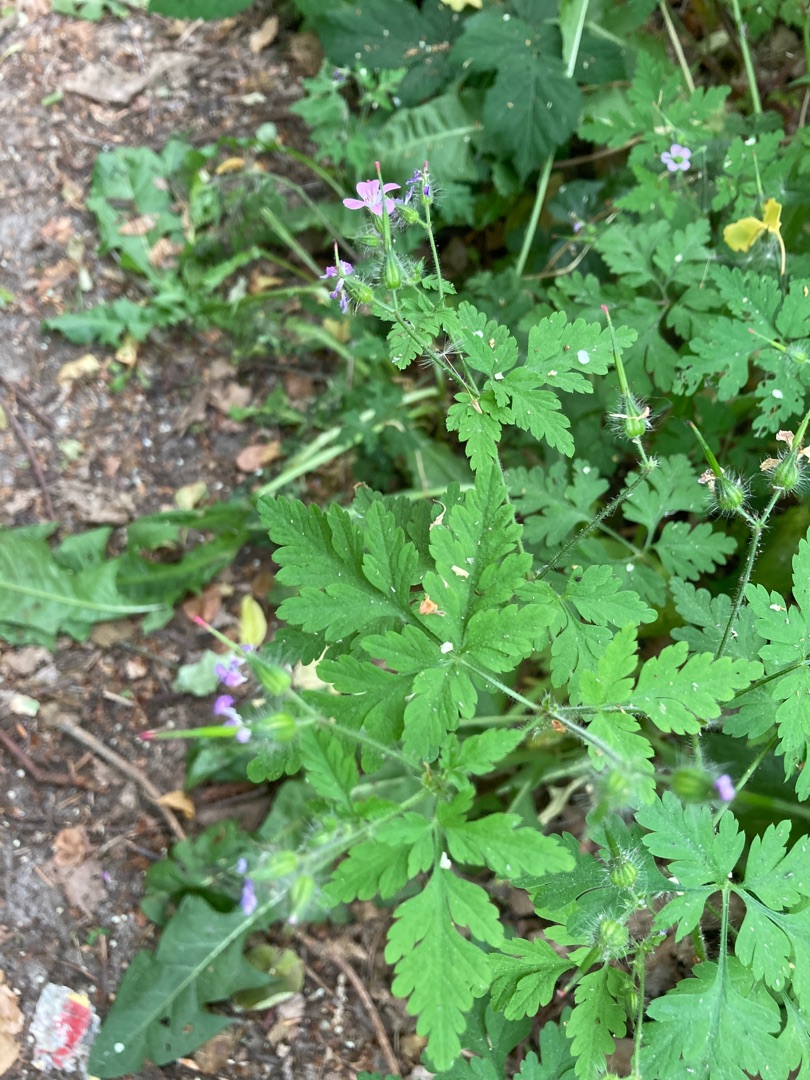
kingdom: Plantae
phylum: Tracheophyta
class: Magnoliopsida
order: Geraniales
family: Geraniaceae
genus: Geranium
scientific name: Geranium robertianum
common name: Stinkende storkenæb
